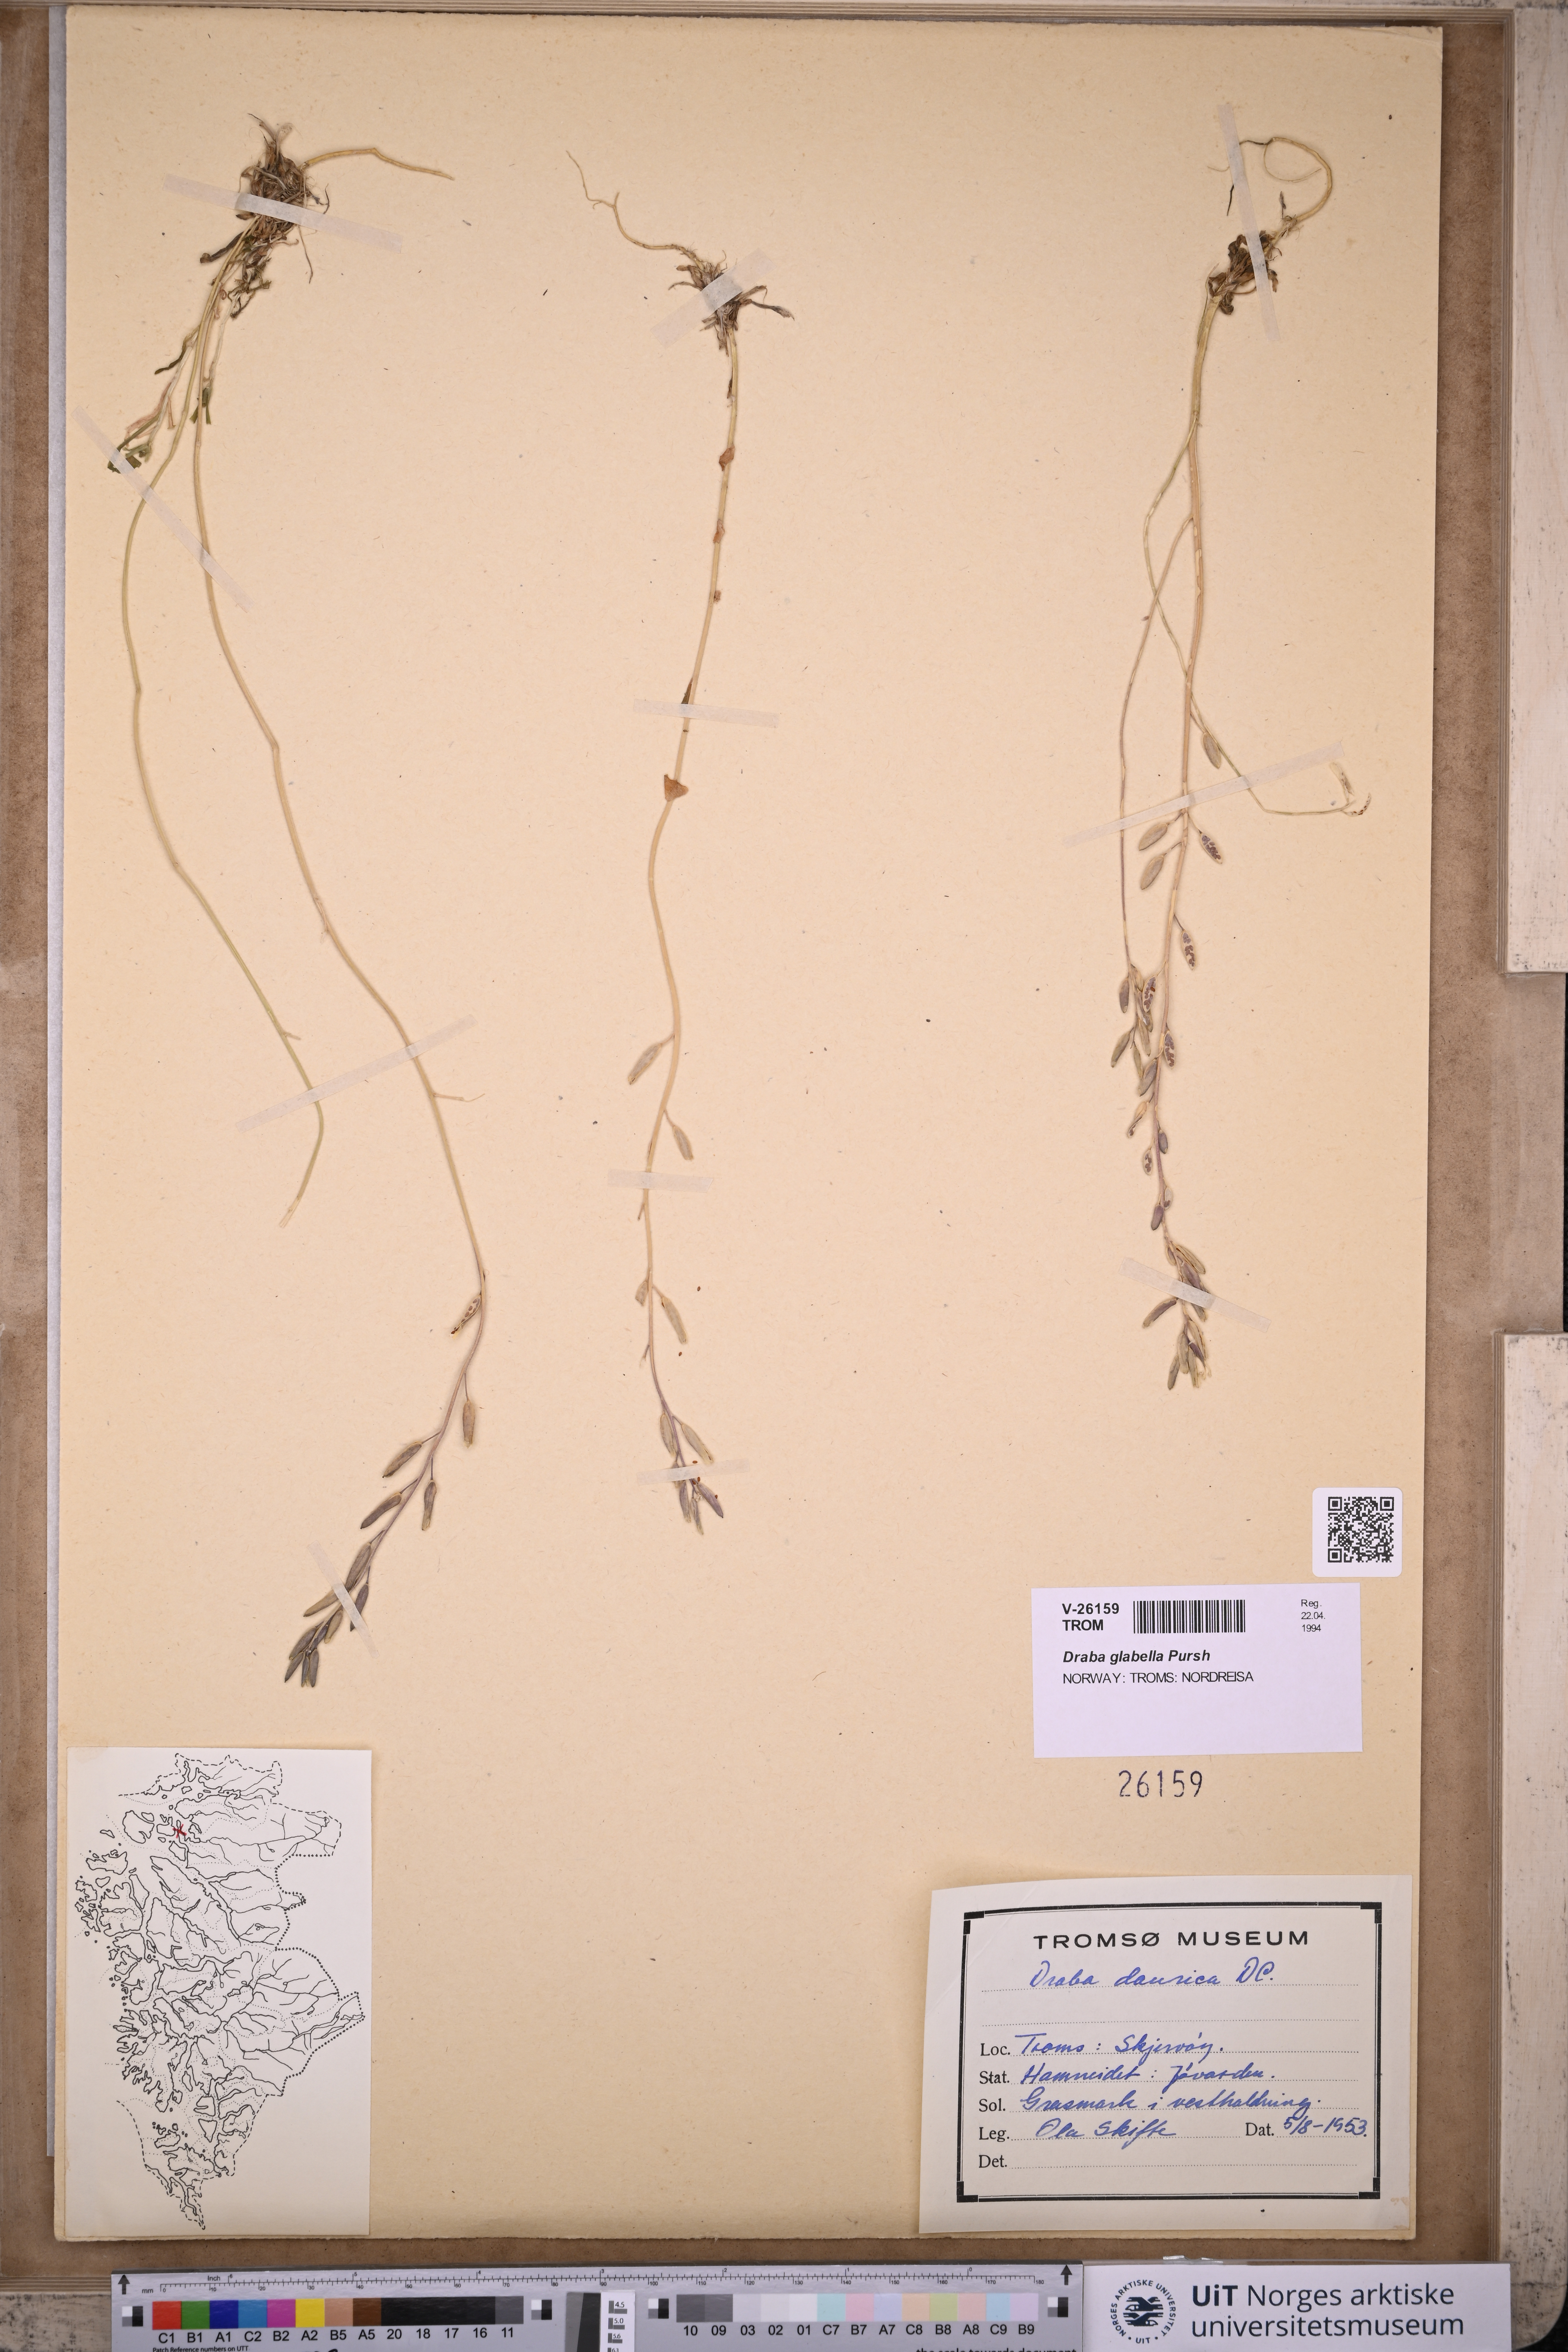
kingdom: Plantae
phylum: Tracheophyta
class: Magnoliopsida
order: Brassicales
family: Brassicaceae
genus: Draba
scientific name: Draba glabella
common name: Glaucous draba
